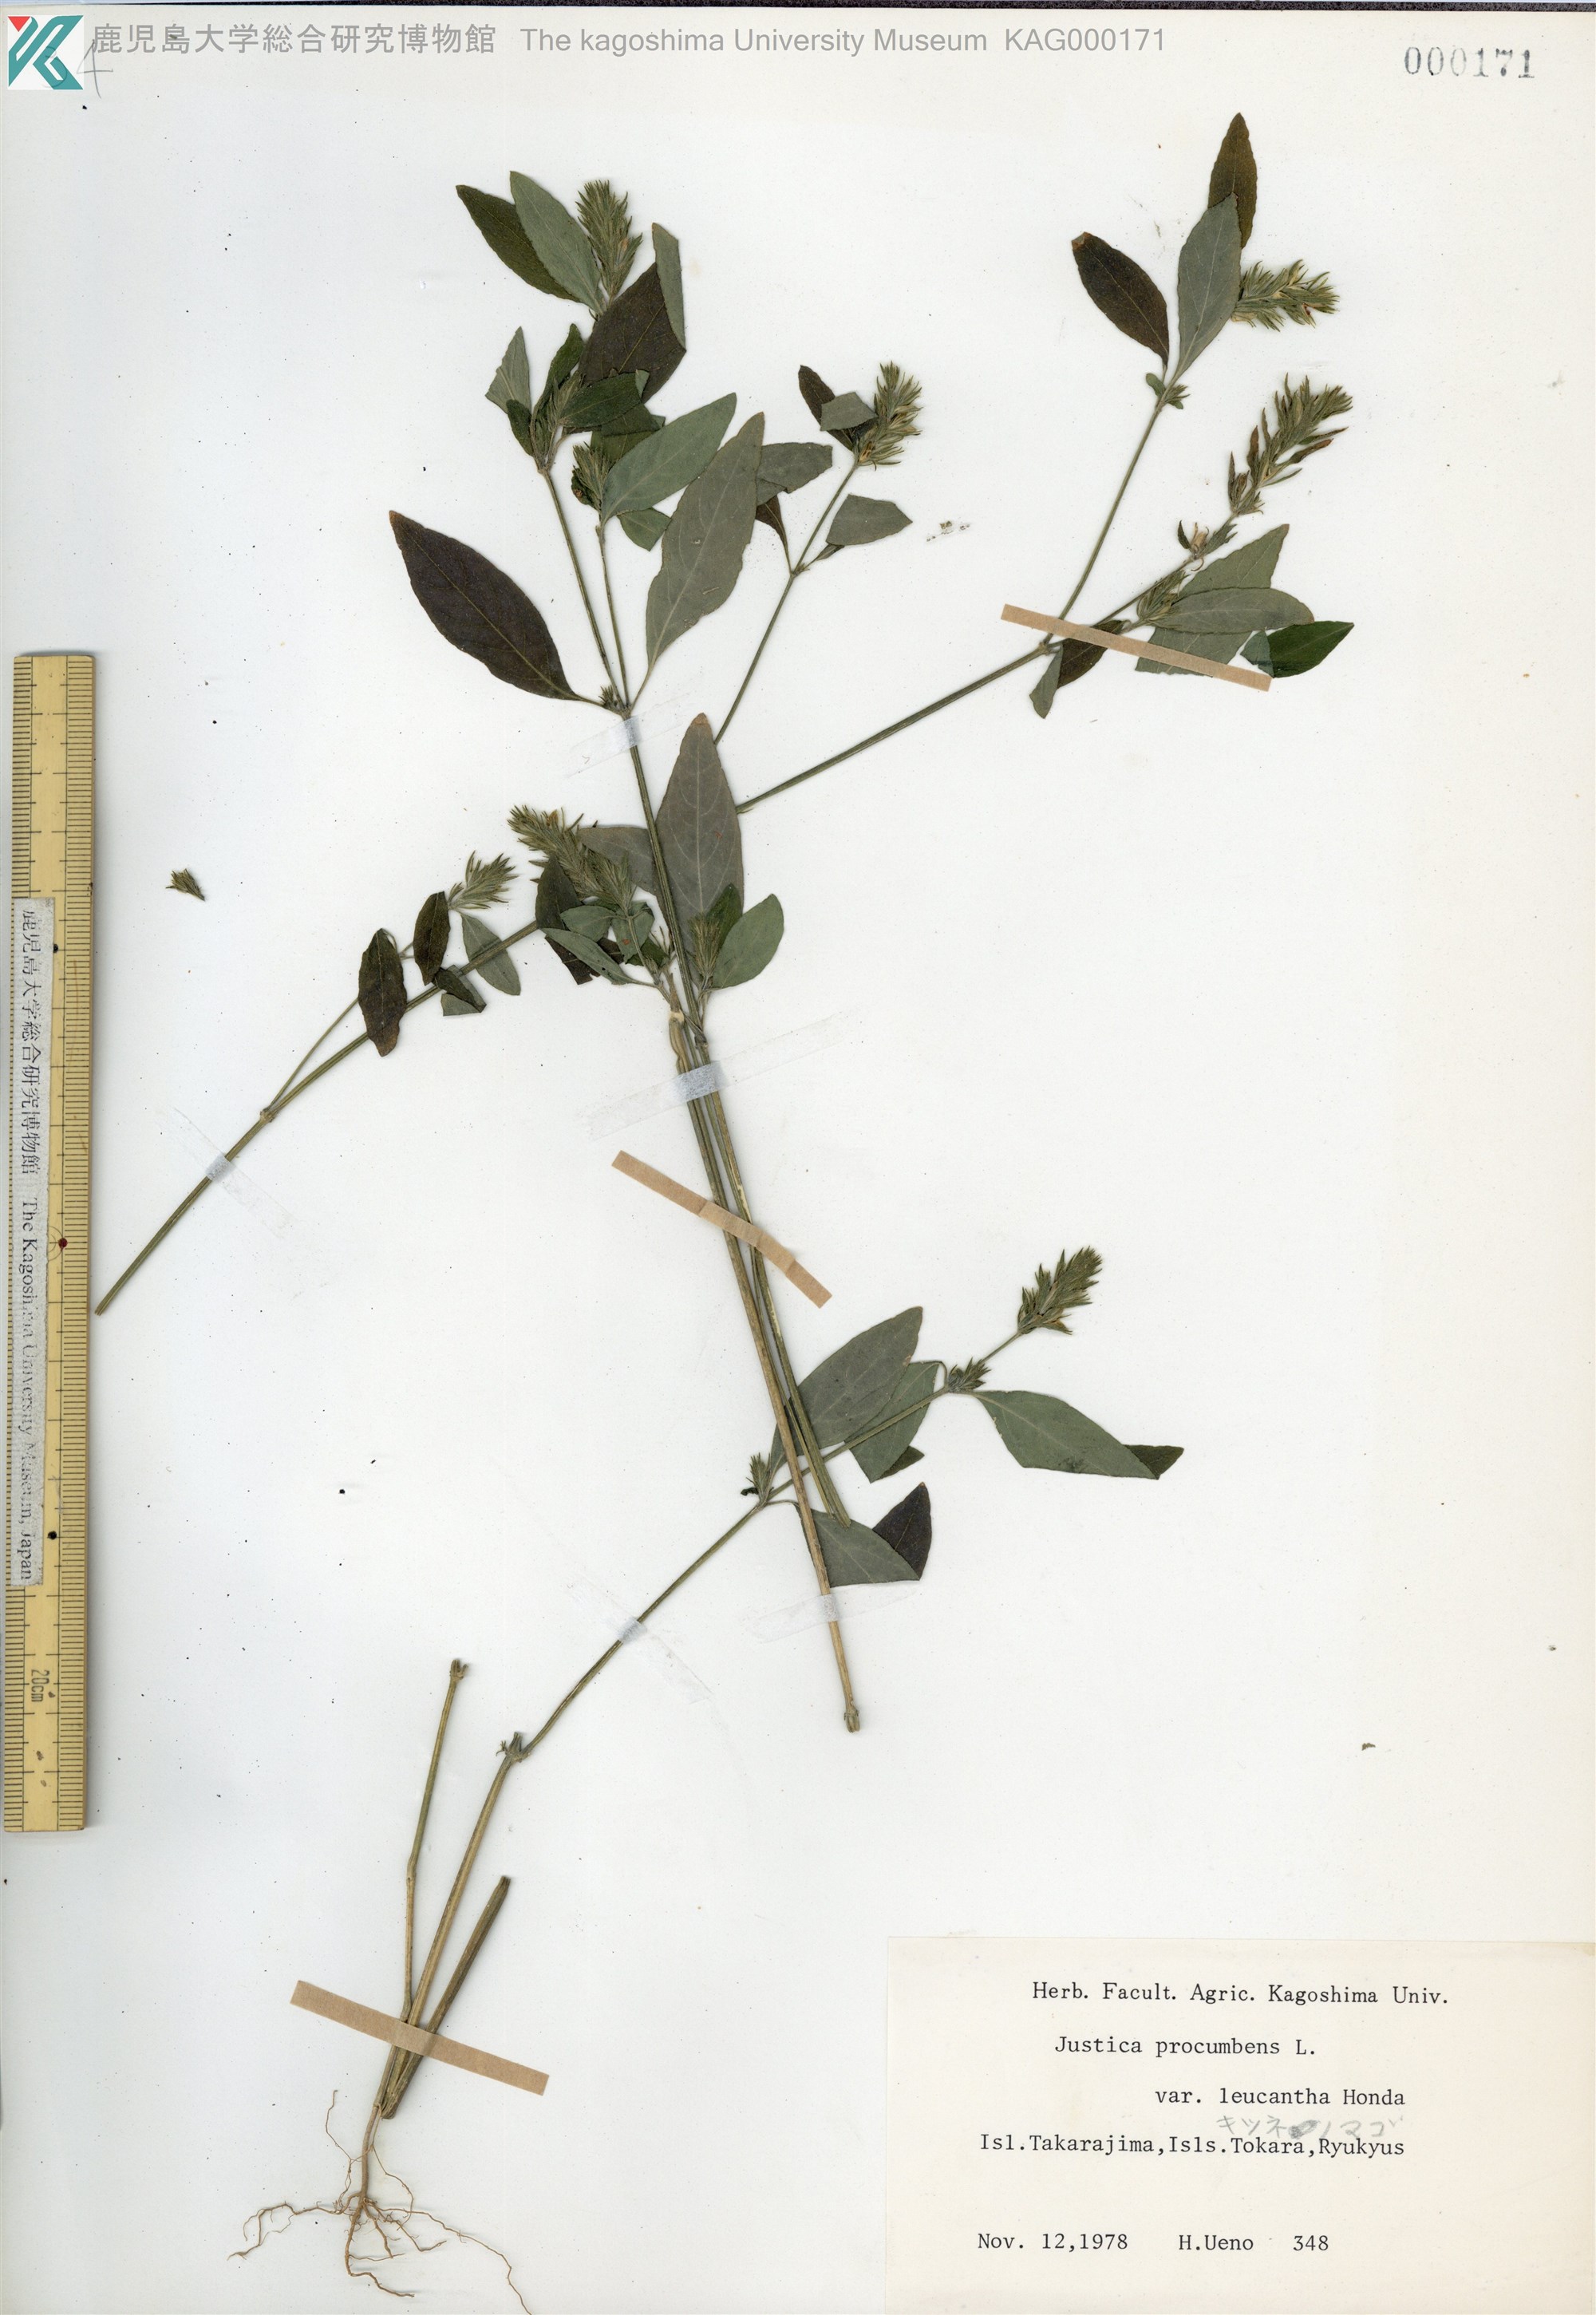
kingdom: Plantae
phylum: Tracheophyta
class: Magnoliopsida
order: Lamiales
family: Acanthaceae
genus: Rostellularia
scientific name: Rostellularia procumbens
